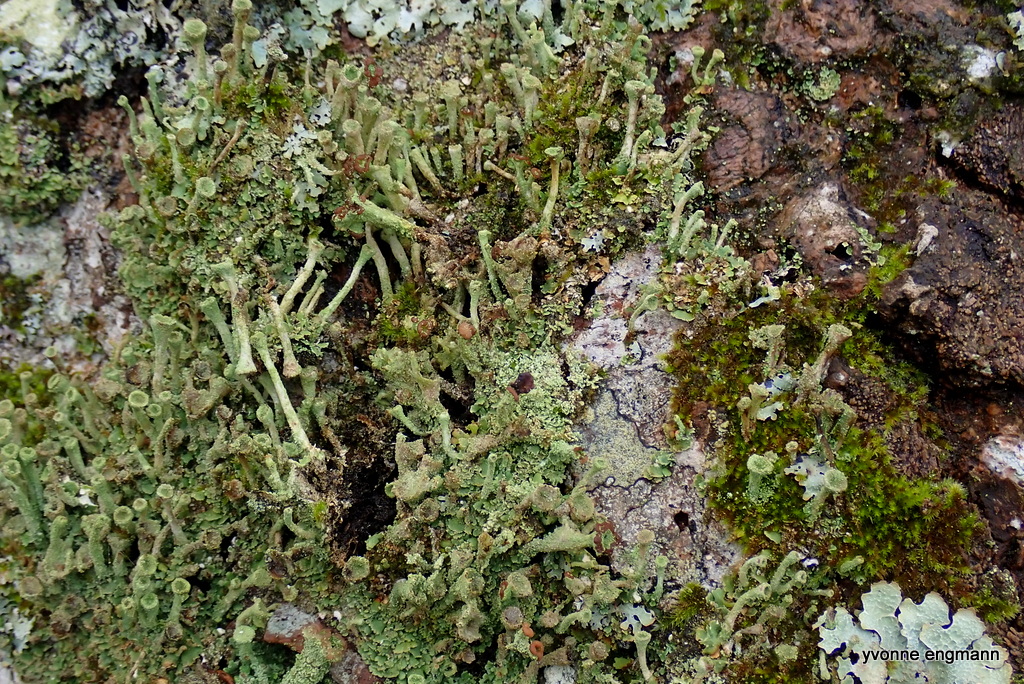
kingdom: Fungi
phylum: Ascomycota
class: Lecanoromycetes
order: Lecanorales
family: Cladoniaceae
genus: Cladonia
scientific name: Cladonia
